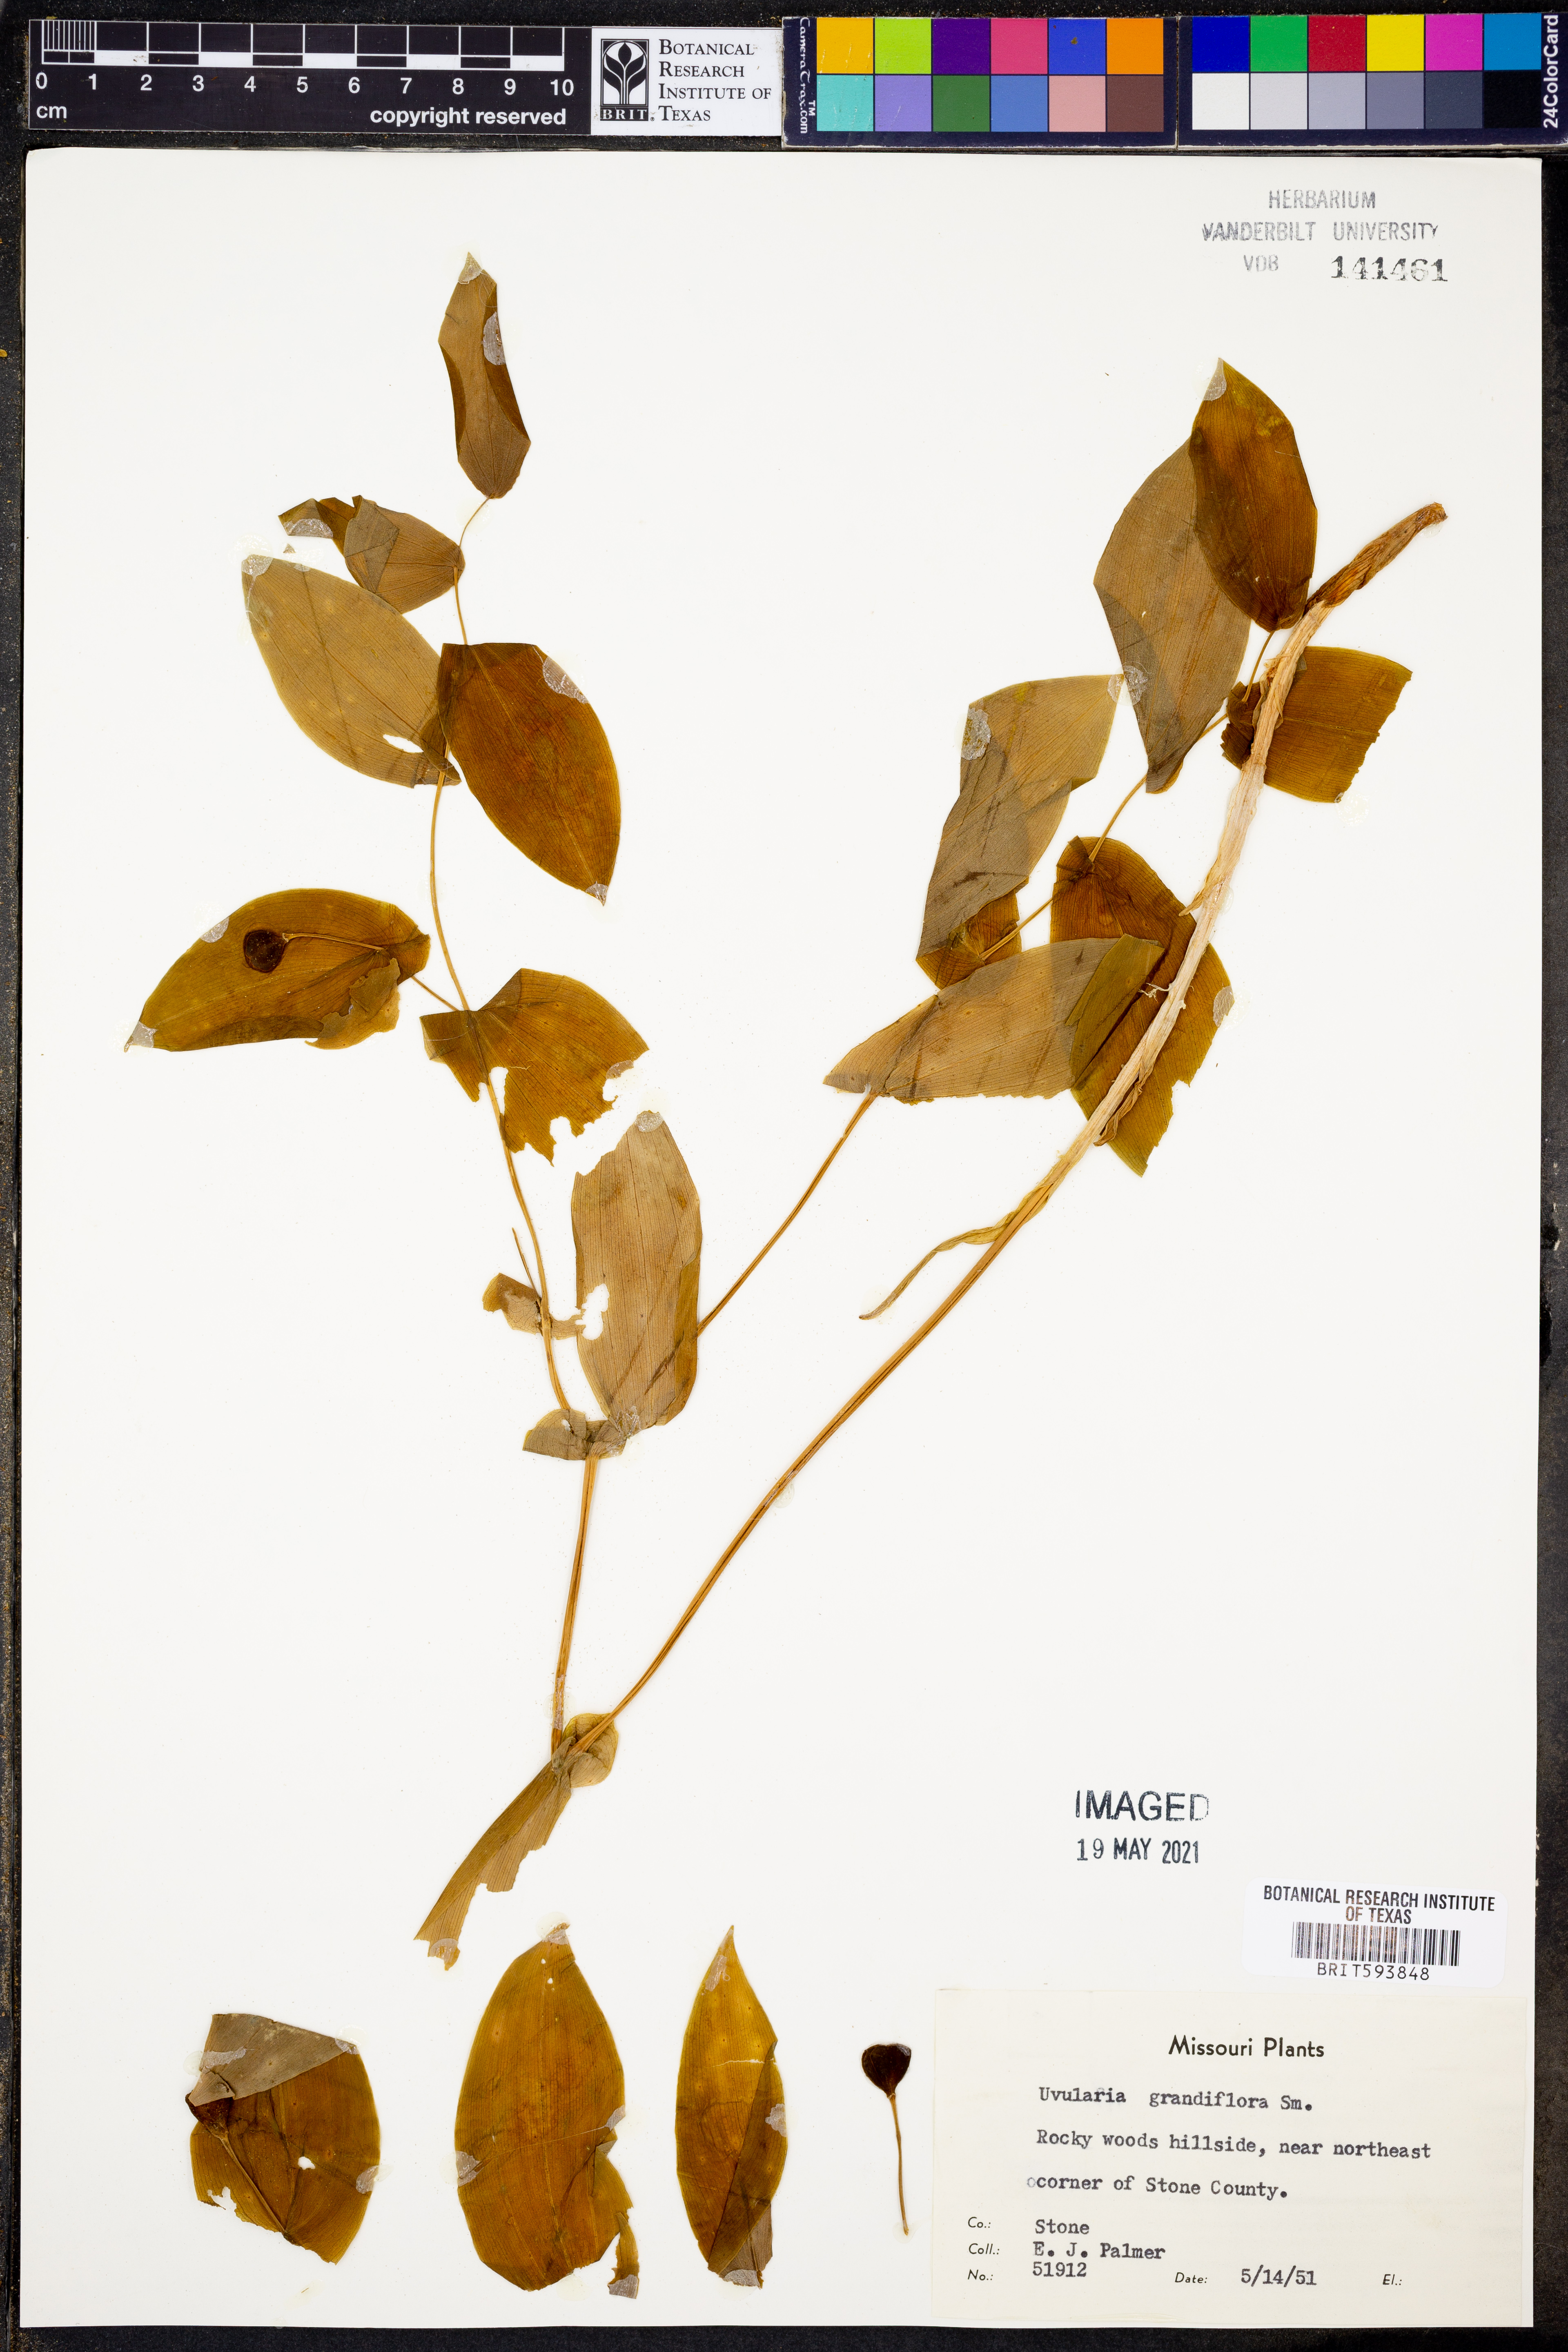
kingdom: Plantae
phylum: Tracheophyta
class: Liliopsida
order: Liliales
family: Colchicaceae
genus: Uvularia
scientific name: Uvularia grandiflora
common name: Bellwort
